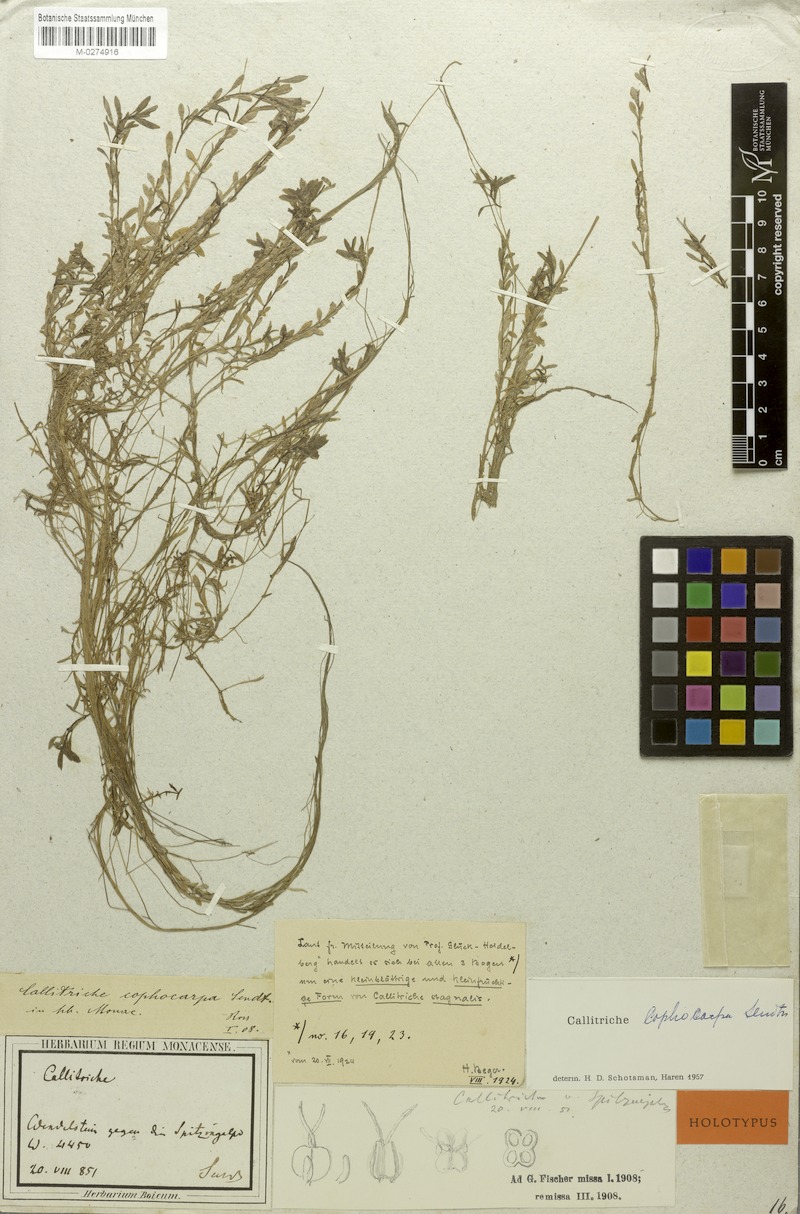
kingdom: Plantae
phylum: Tracheophyta
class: Magnoliopsida
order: Lamiales
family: Plantaginaceae
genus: Callitriche
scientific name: Callitriche cophocarpa
